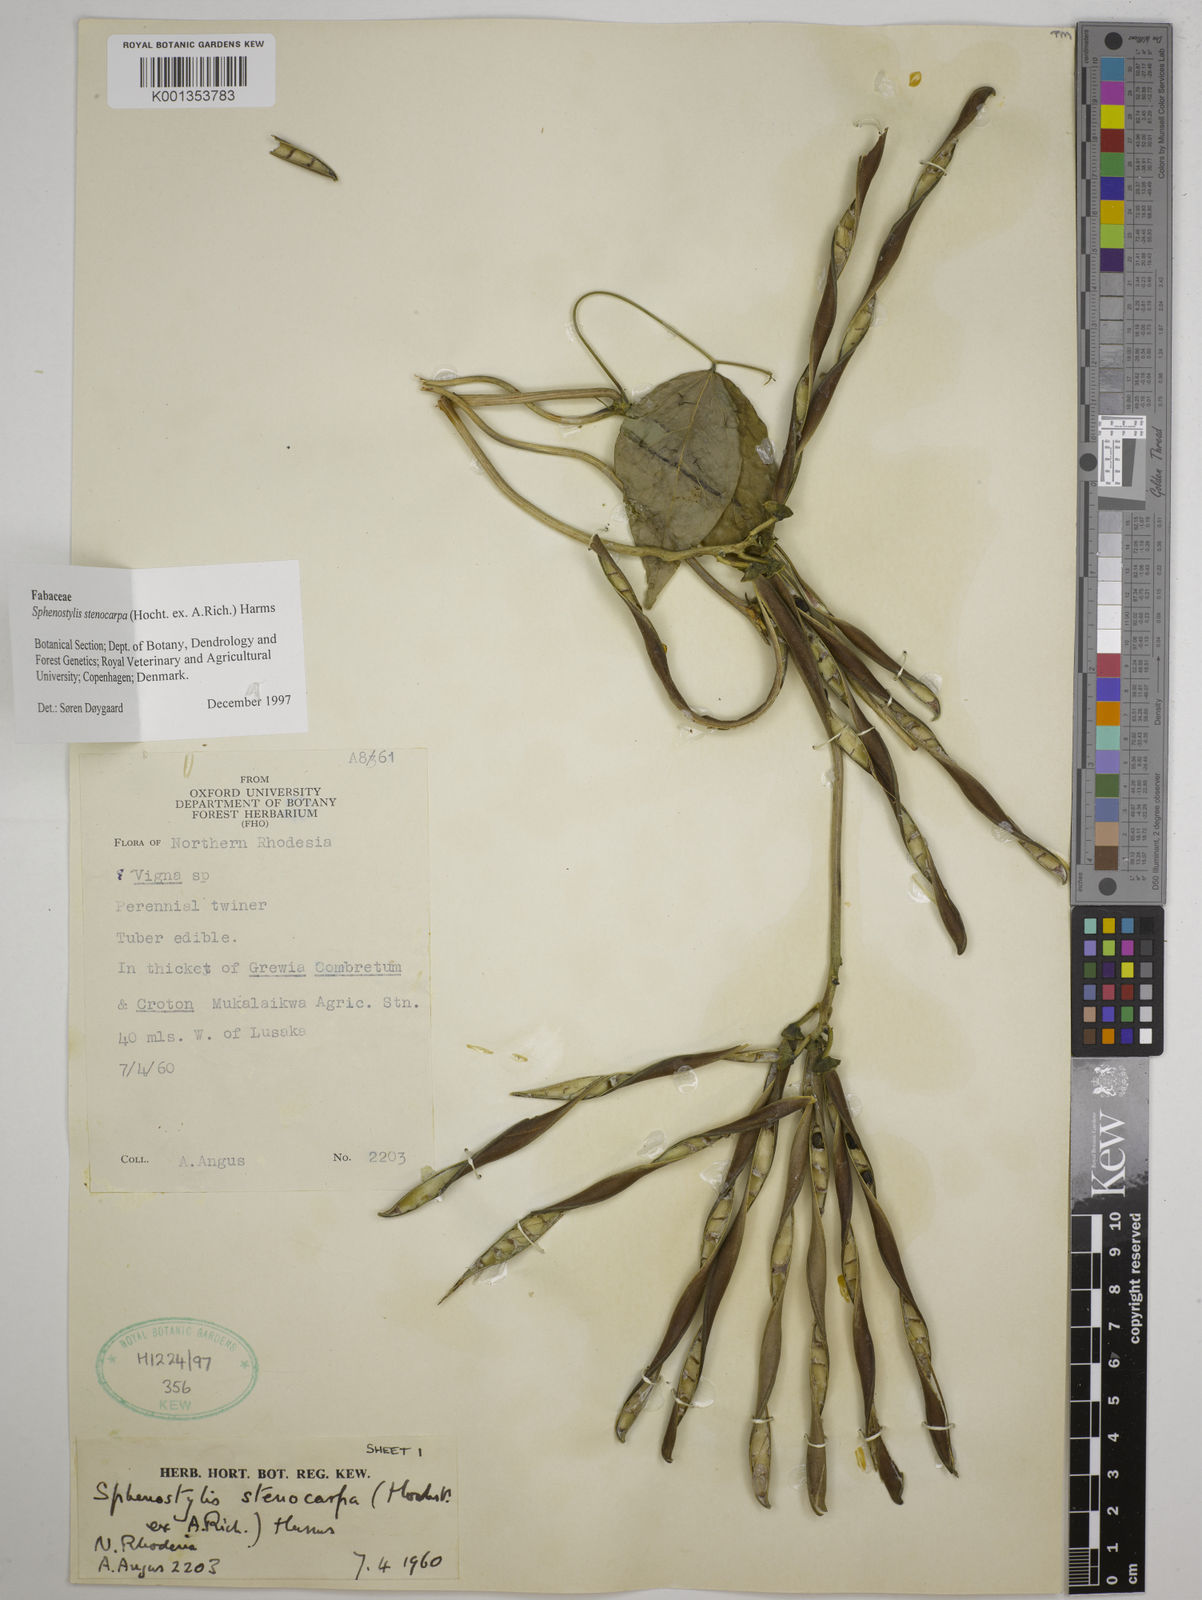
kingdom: Plantae
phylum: Tracheophyta
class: Magnoliopsida
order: Fabales
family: Fabaceae
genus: Sphenostylis
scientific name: Sphenostylis stenocarpa
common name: Yam-pea
